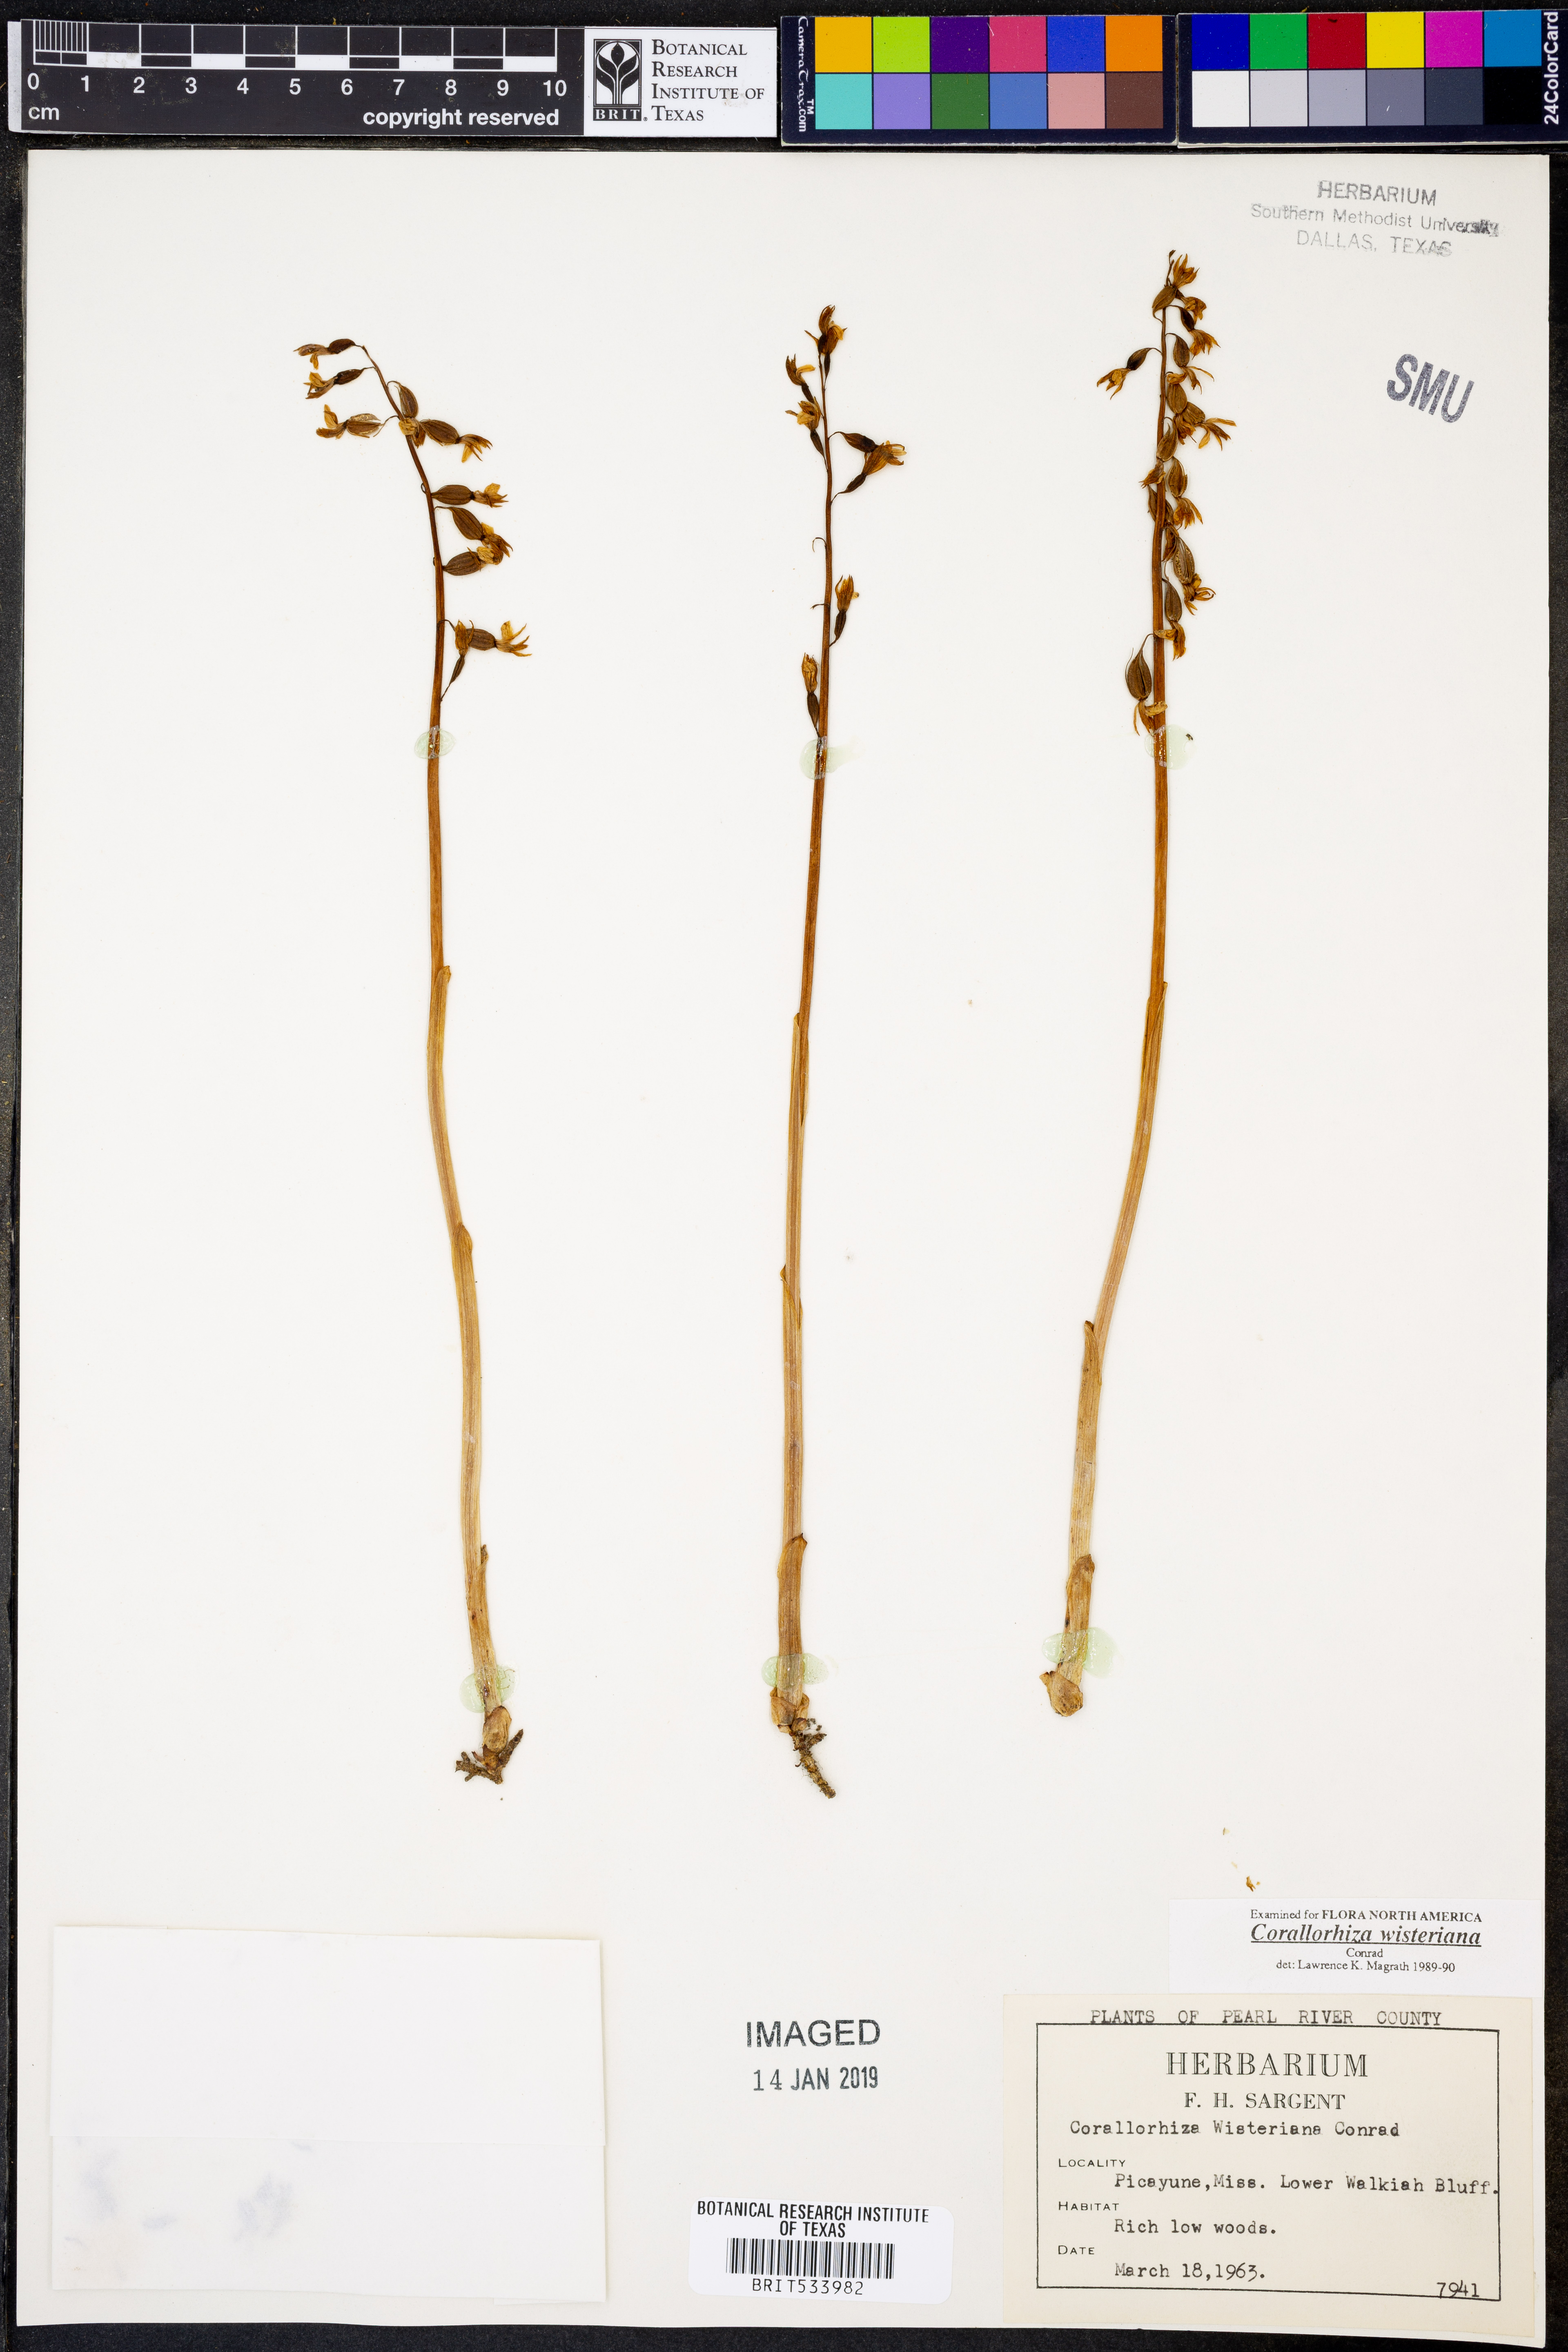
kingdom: Plantae
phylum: Tracheophyta
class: Liliopsida
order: Asparagales
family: Orchidaceae
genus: Corallorhiza
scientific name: Corallorhiza wisteriana
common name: Spring coralroot
